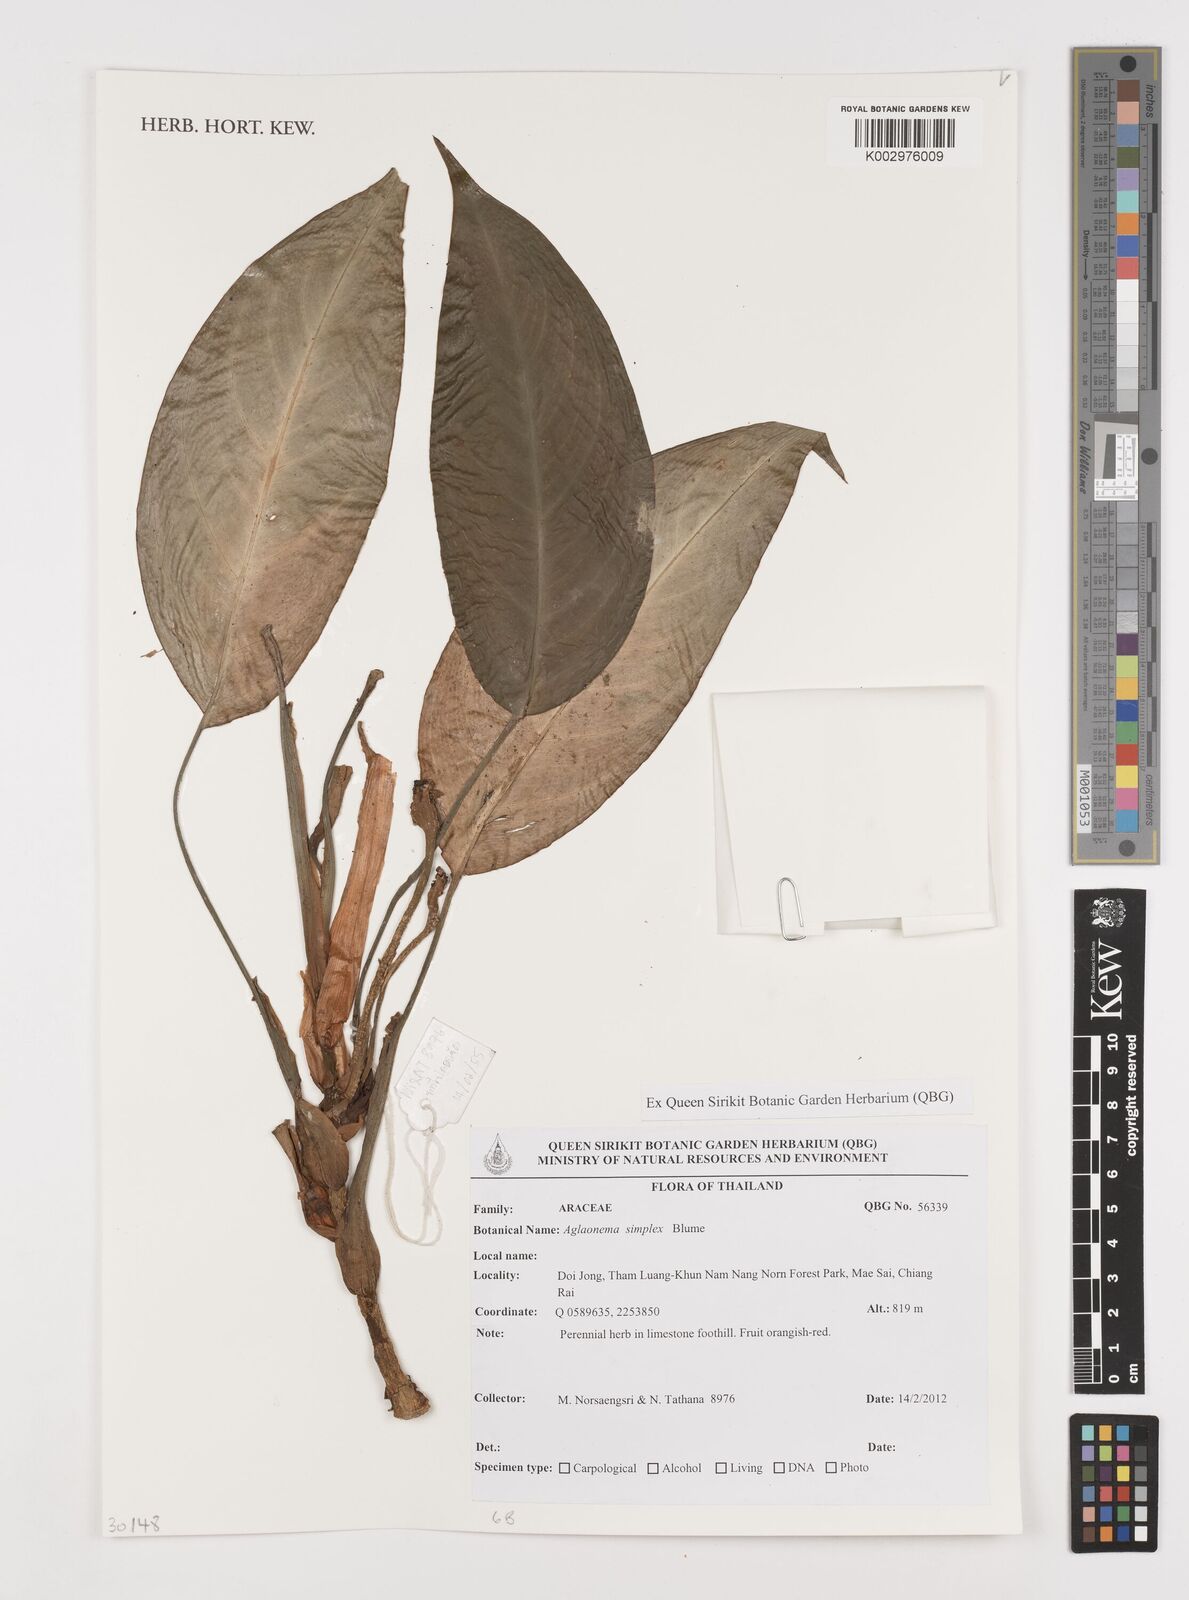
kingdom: Plantae
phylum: Tracheophyta
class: Liliopsida
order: Alismatales
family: Araceae
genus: Aglaonema
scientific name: Aglaonema simplex
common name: Malayan-sword
